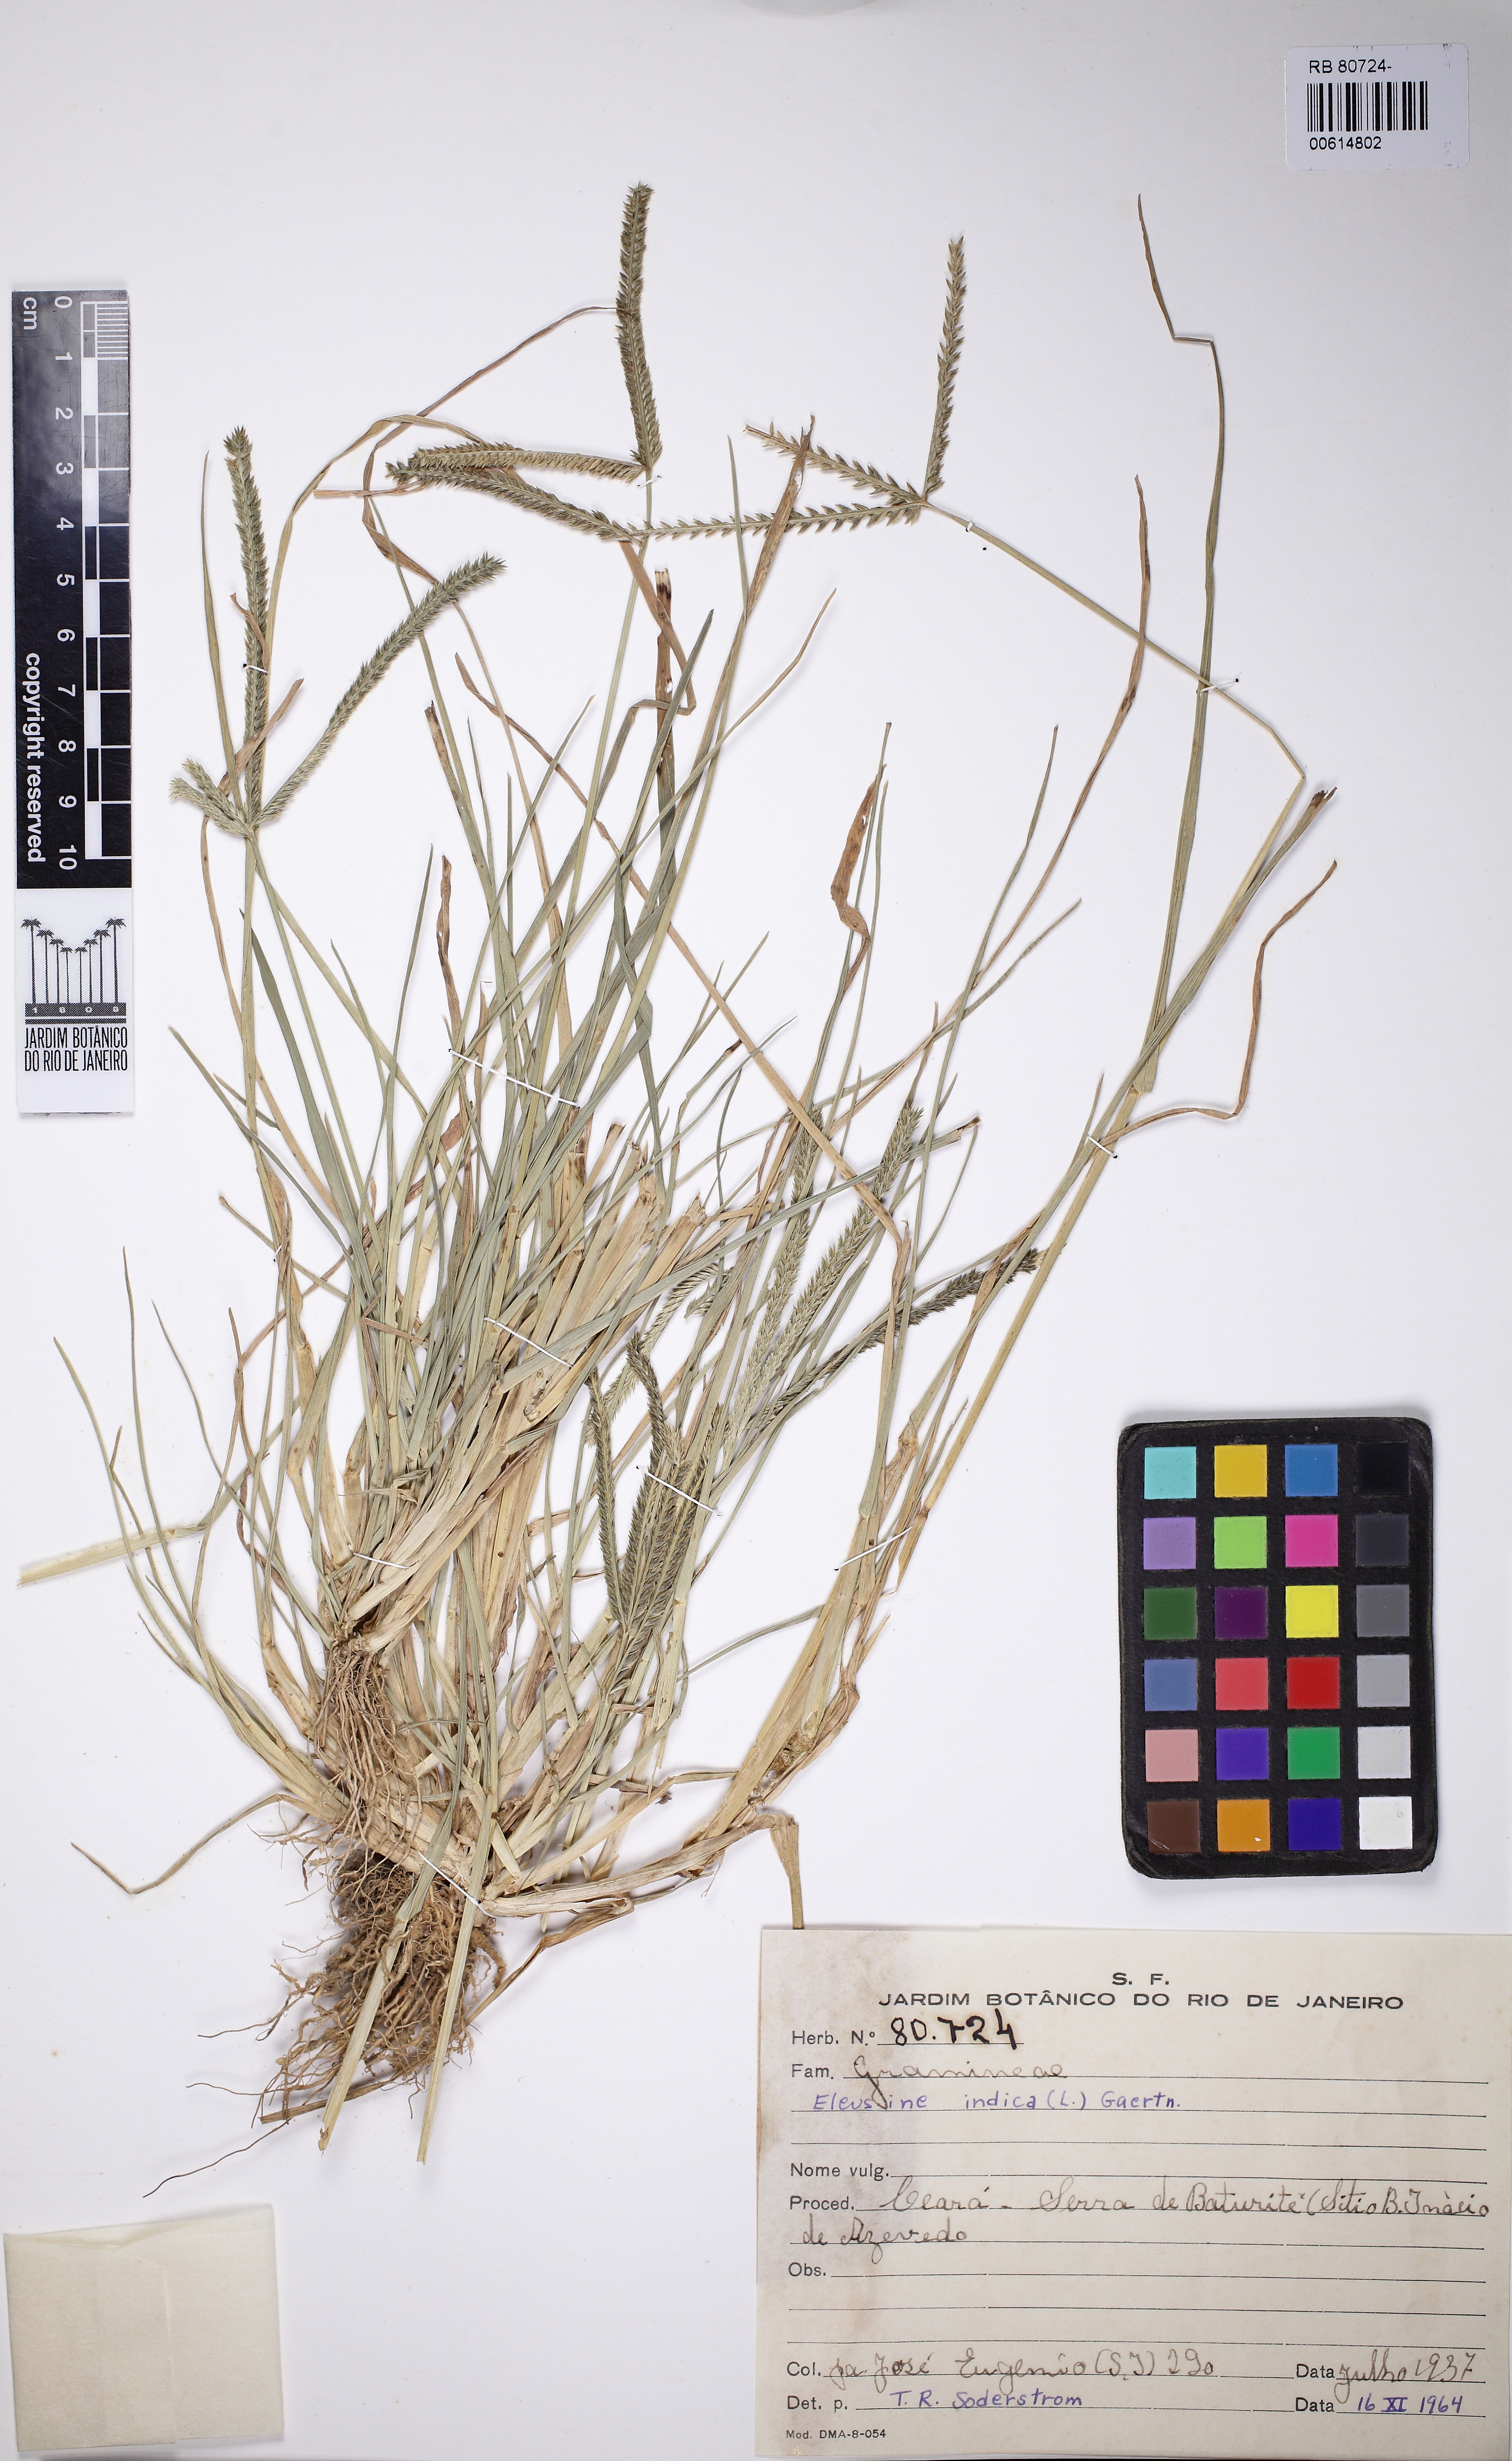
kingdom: Plantae
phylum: Tracheophyta
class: Liliopsida
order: Poales
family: Poaceae
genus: Eleusine
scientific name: Eleusine indica
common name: Yard-grass
